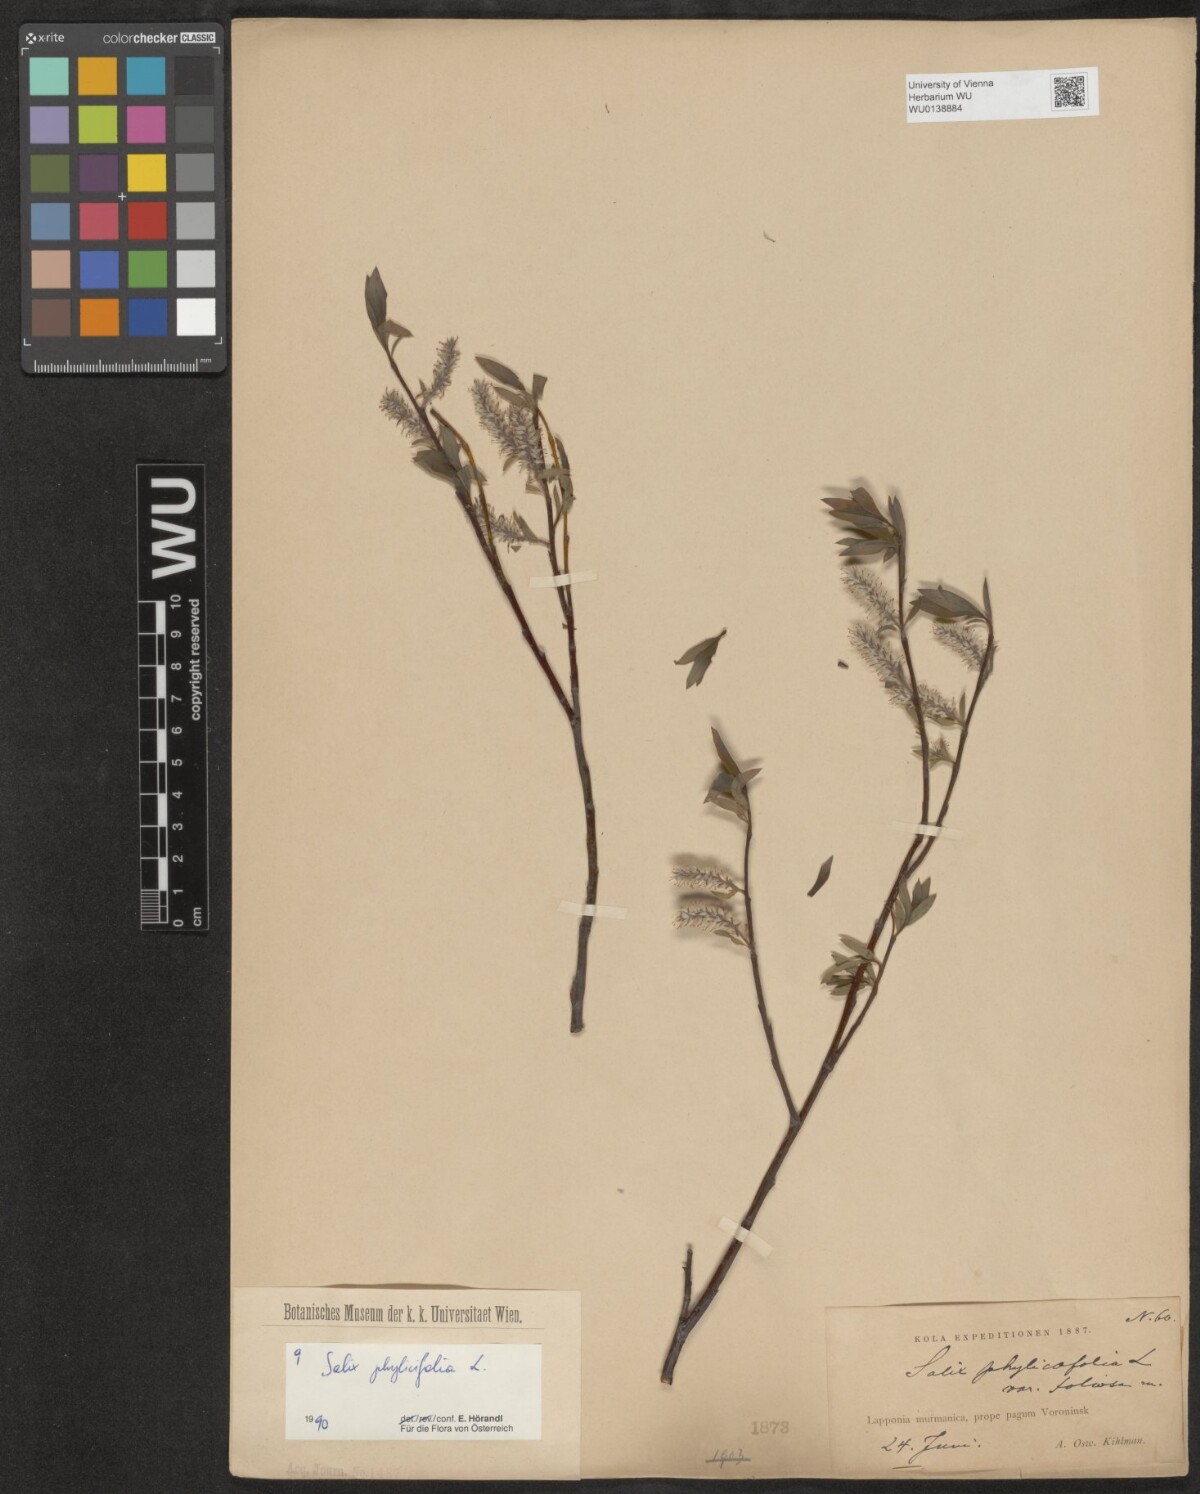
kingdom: Plantae
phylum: Tracheophyta
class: Magnoliopsida
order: Malpighiales
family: Salicaceae
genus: Salix
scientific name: Salix phylicifolia
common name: Tea-leaved willow
